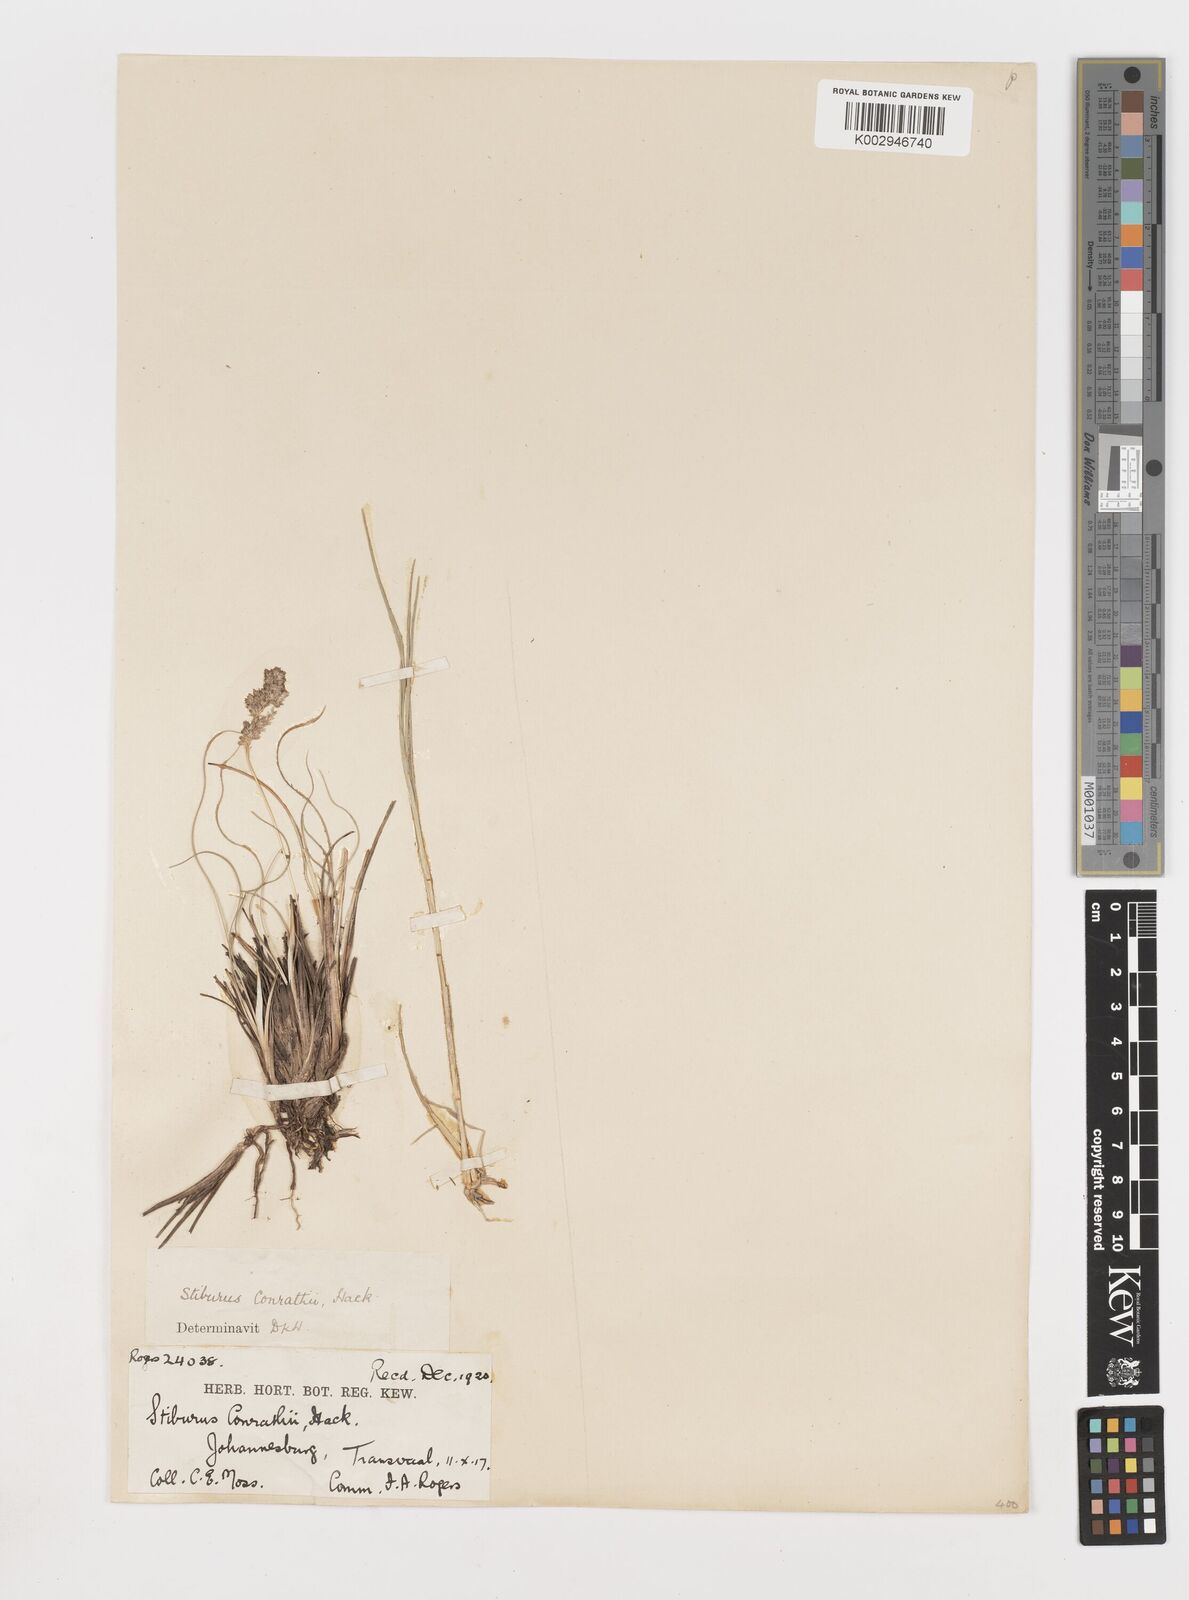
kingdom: Plantae
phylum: Tracheophyta
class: Liliopsida
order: Poales
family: Poaceae
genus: Stiburus
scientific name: Stiburus conrathii
